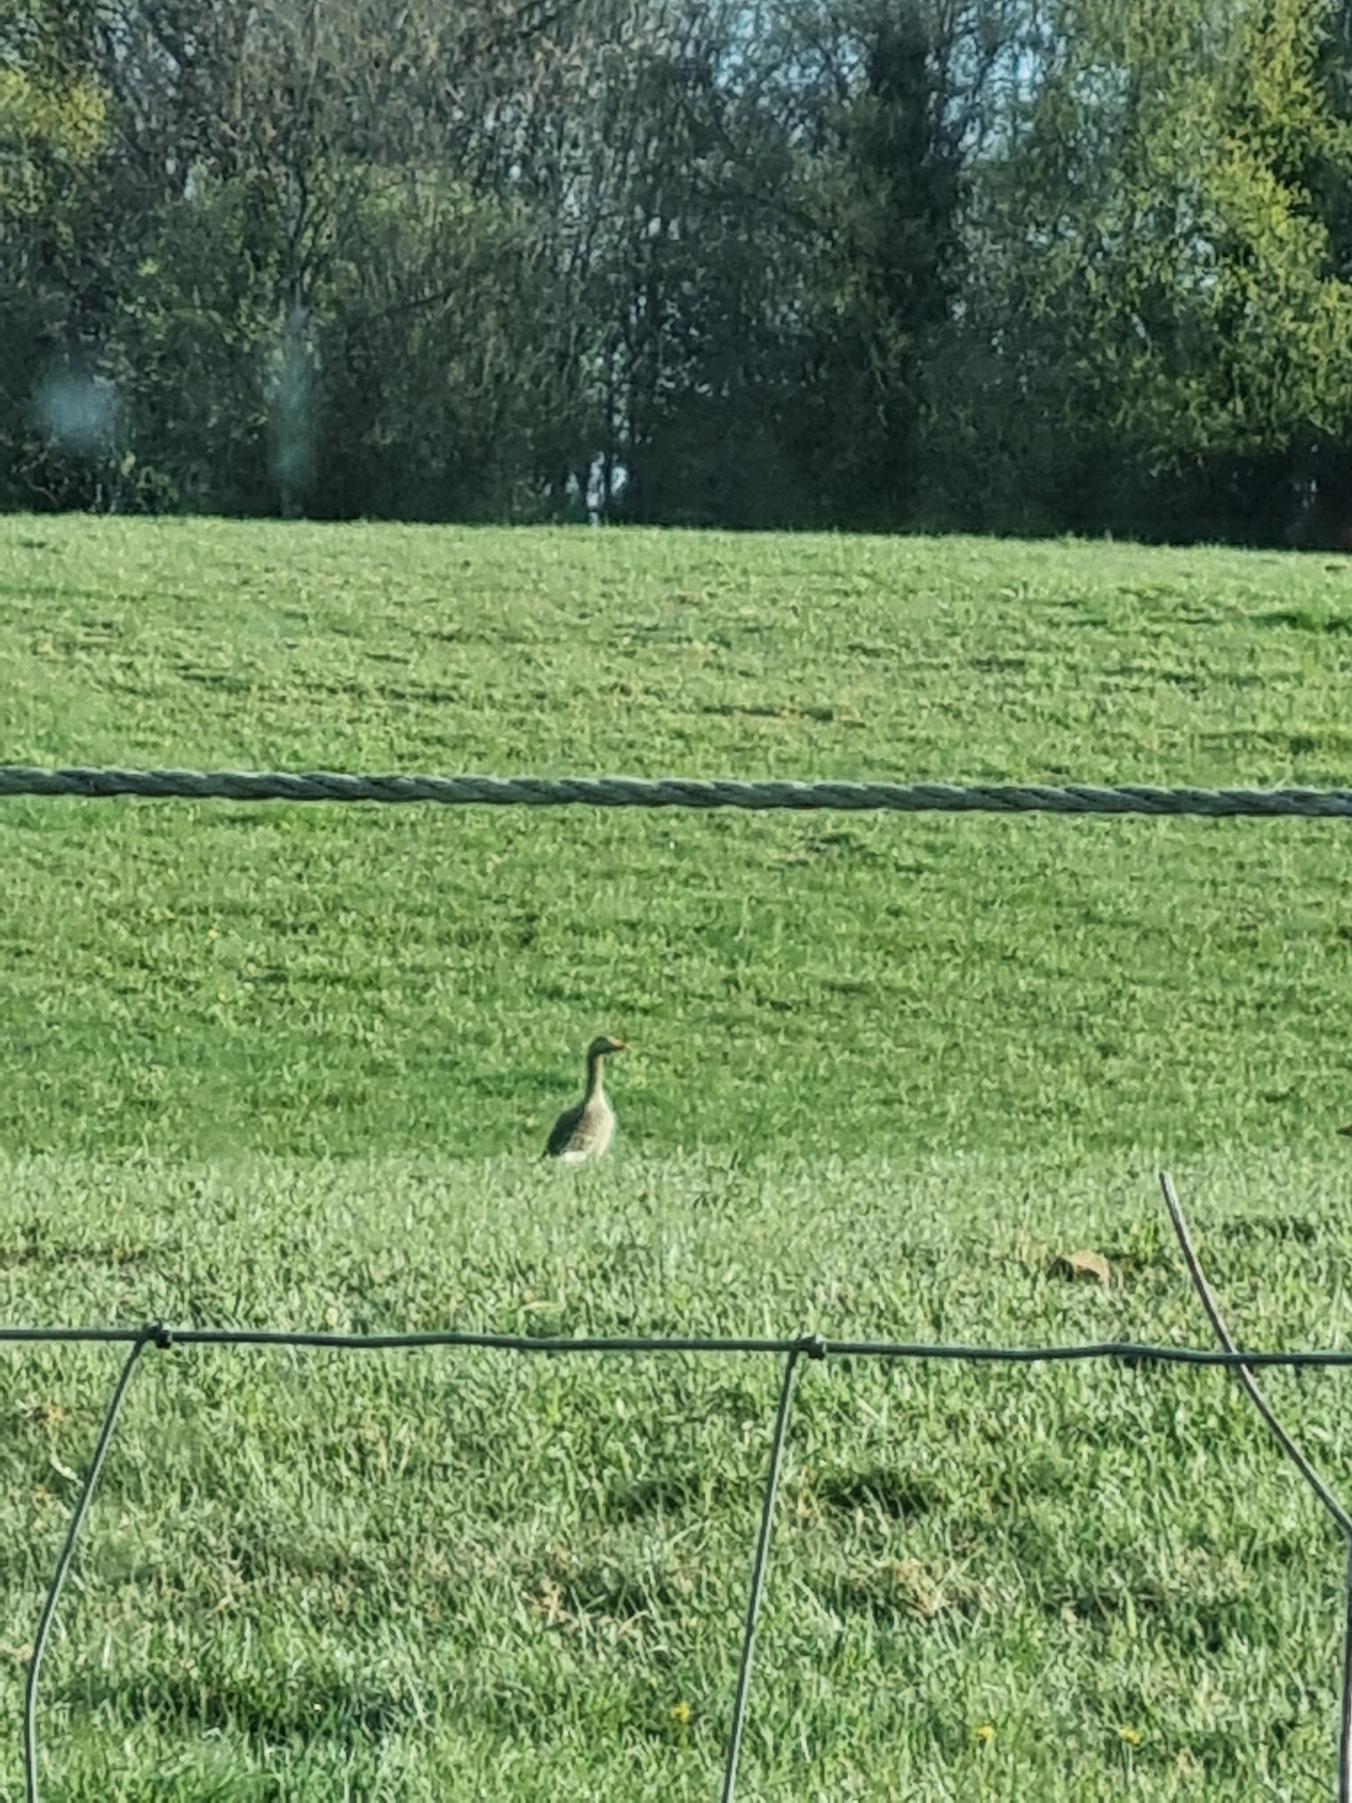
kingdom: Animalia
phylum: Chordata
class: Aves
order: Anseriformes
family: Anatidae
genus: Anser
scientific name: Anser anser
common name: Grågås
